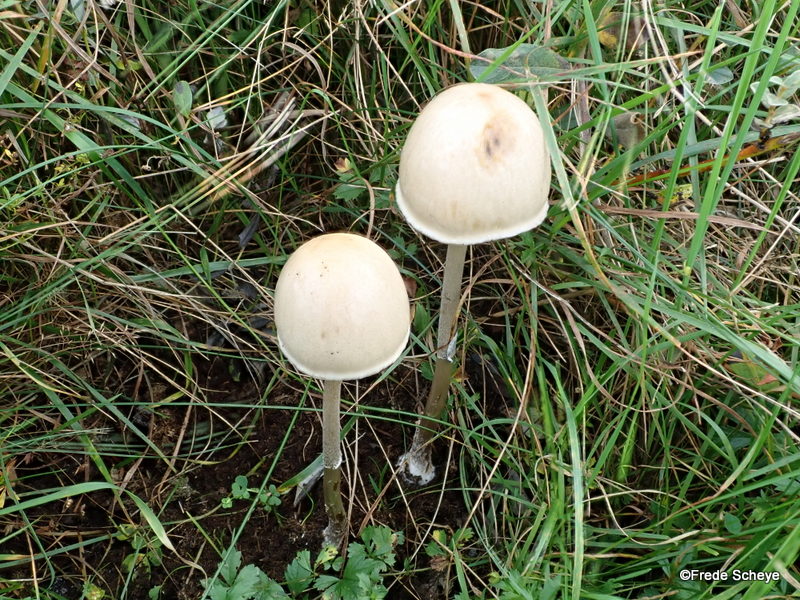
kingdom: Fungi
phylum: Basidiomycota
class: Agaricomycetes
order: Agaricales
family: Bolbitiaceae
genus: Panaeolus
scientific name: Panaeolus semiovatus
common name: ring-glanshat
